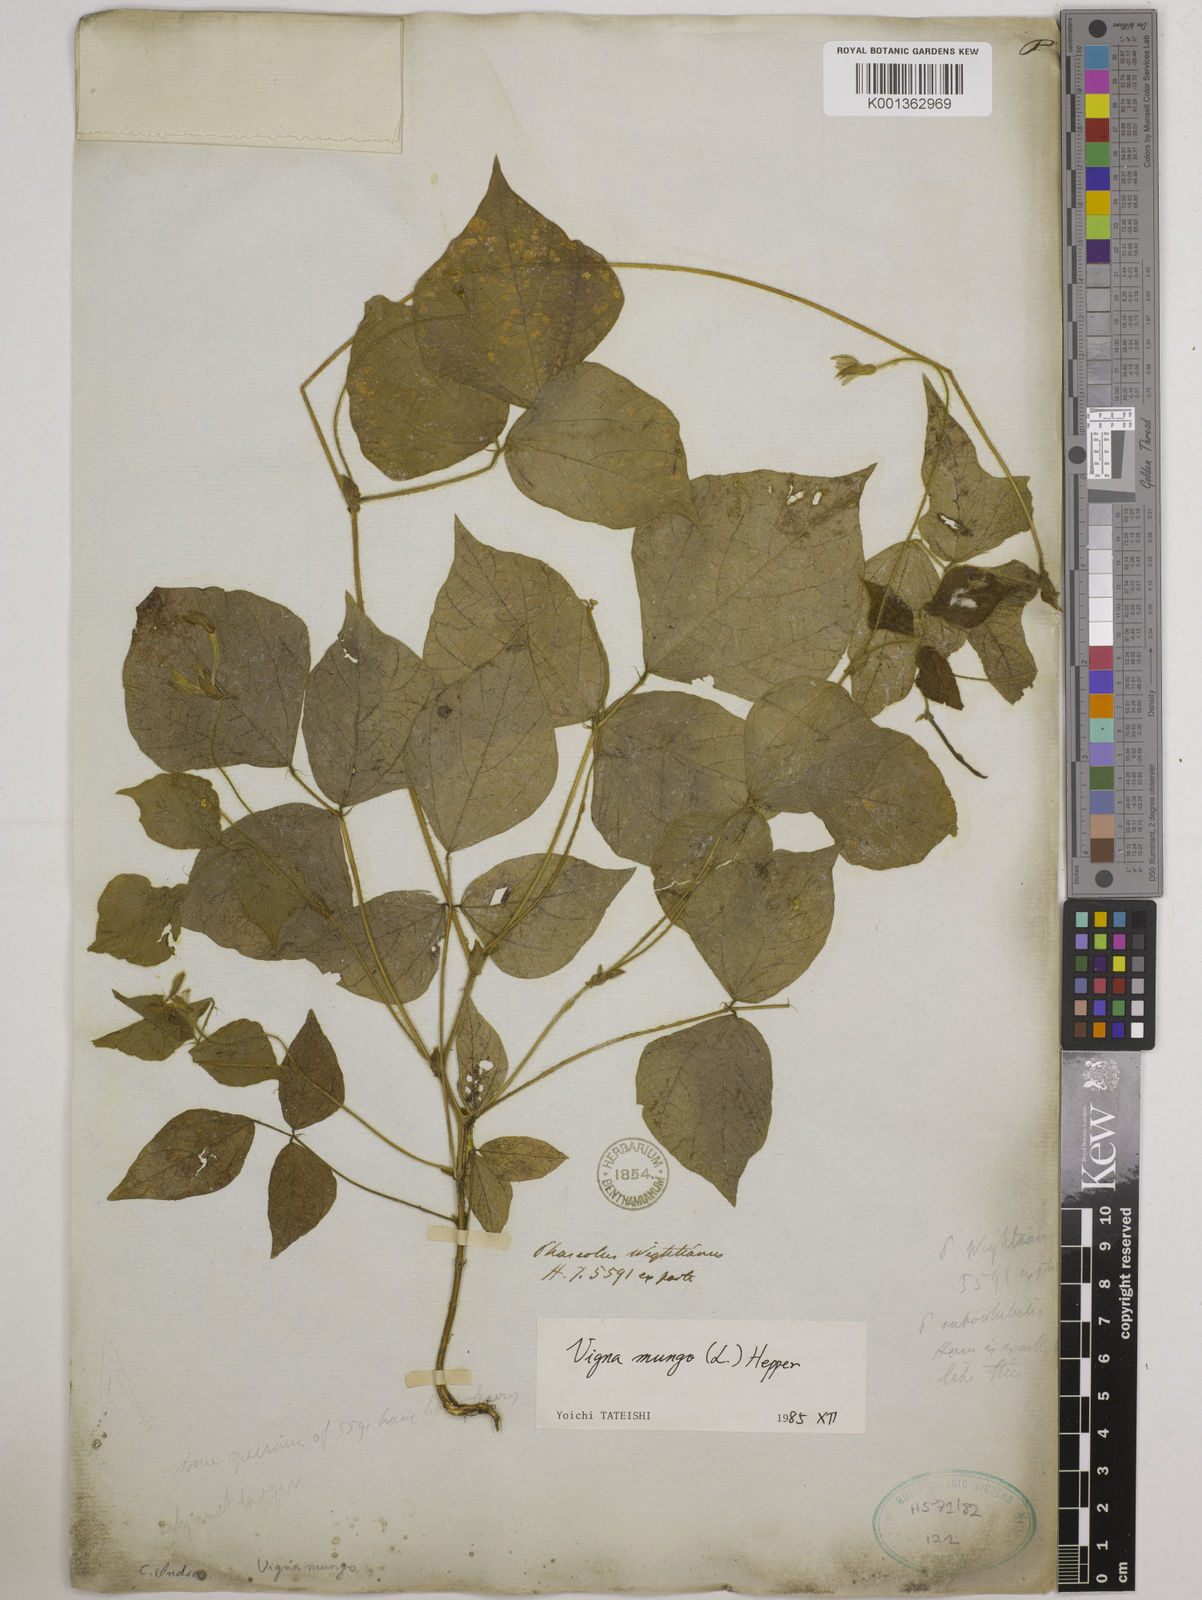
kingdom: Plantae
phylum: Tracheophyta
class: Magnoliopsida
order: Fabales
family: Fabaceae
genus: Vigna
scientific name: Vigna mungo
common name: Black gram
